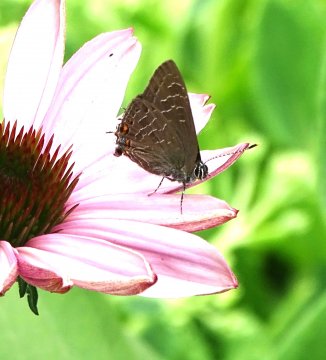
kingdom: Animalia
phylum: Arthropoda
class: Insecta
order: Lepidoptera
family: Lycaenidae
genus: Satyrium
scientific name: Satyrium liparops
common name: Striped Hairstreak
